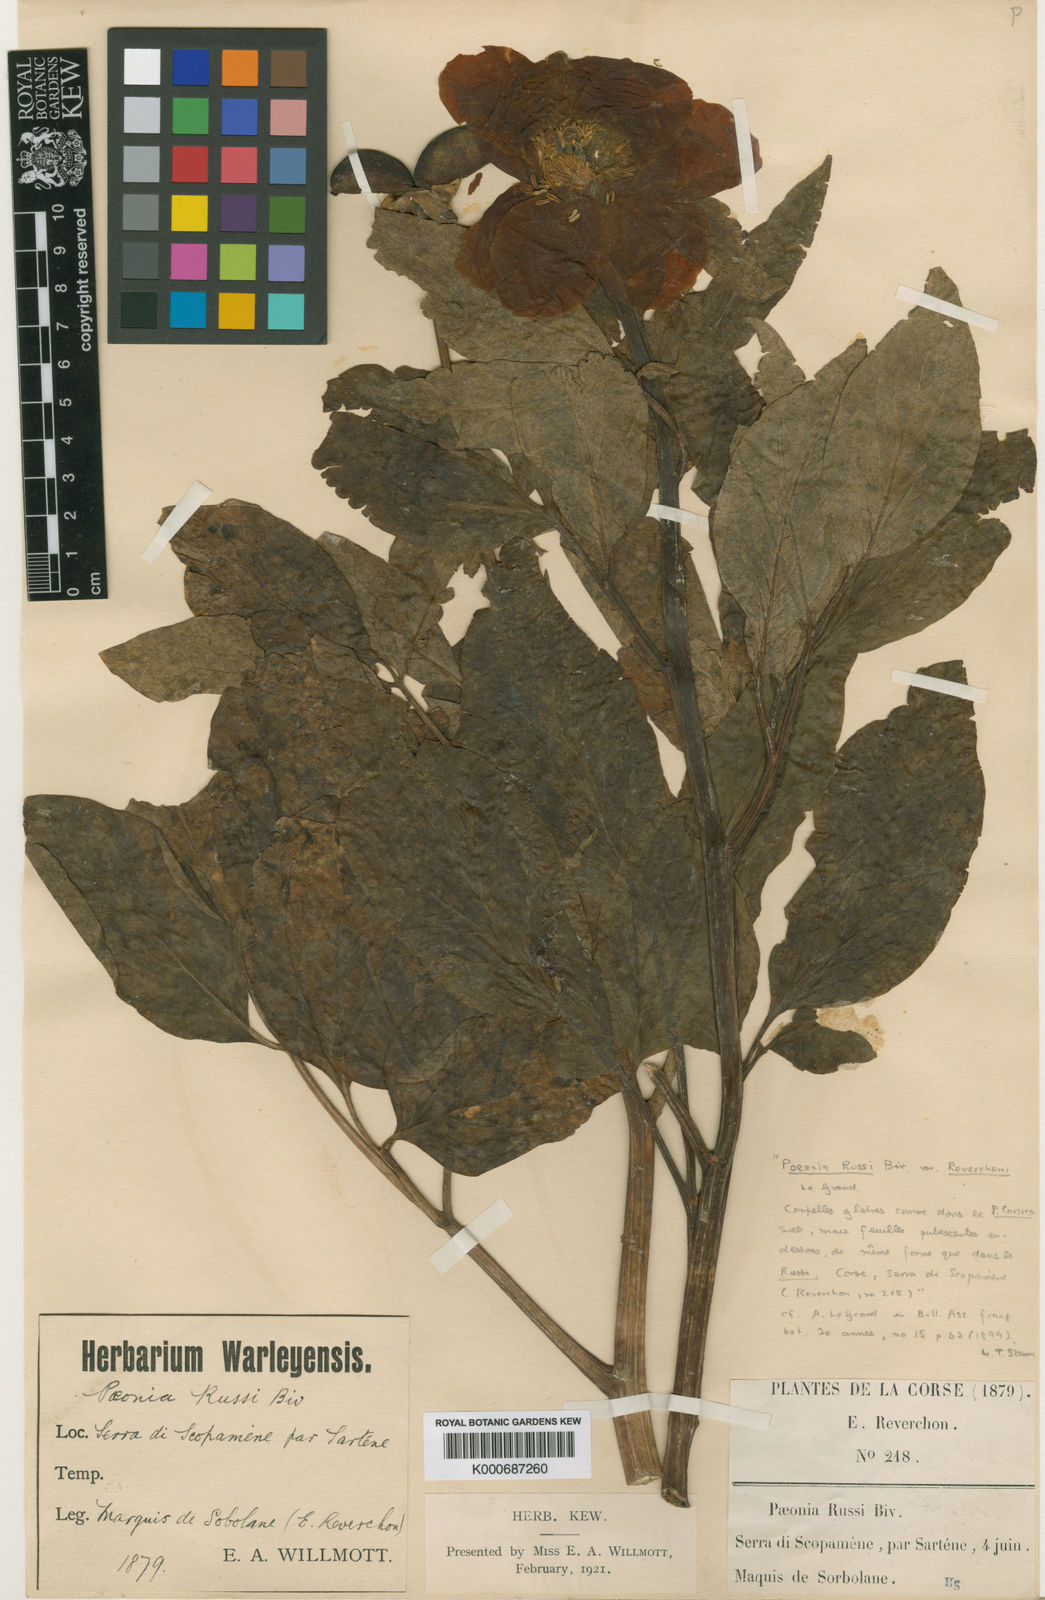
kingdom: Plantae
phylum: Tracheophyta
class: Magnoliopsida
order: Saxifragales
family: Paeoniaceae
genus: Paeonia
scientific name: Paeonia mascula
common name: Peony
